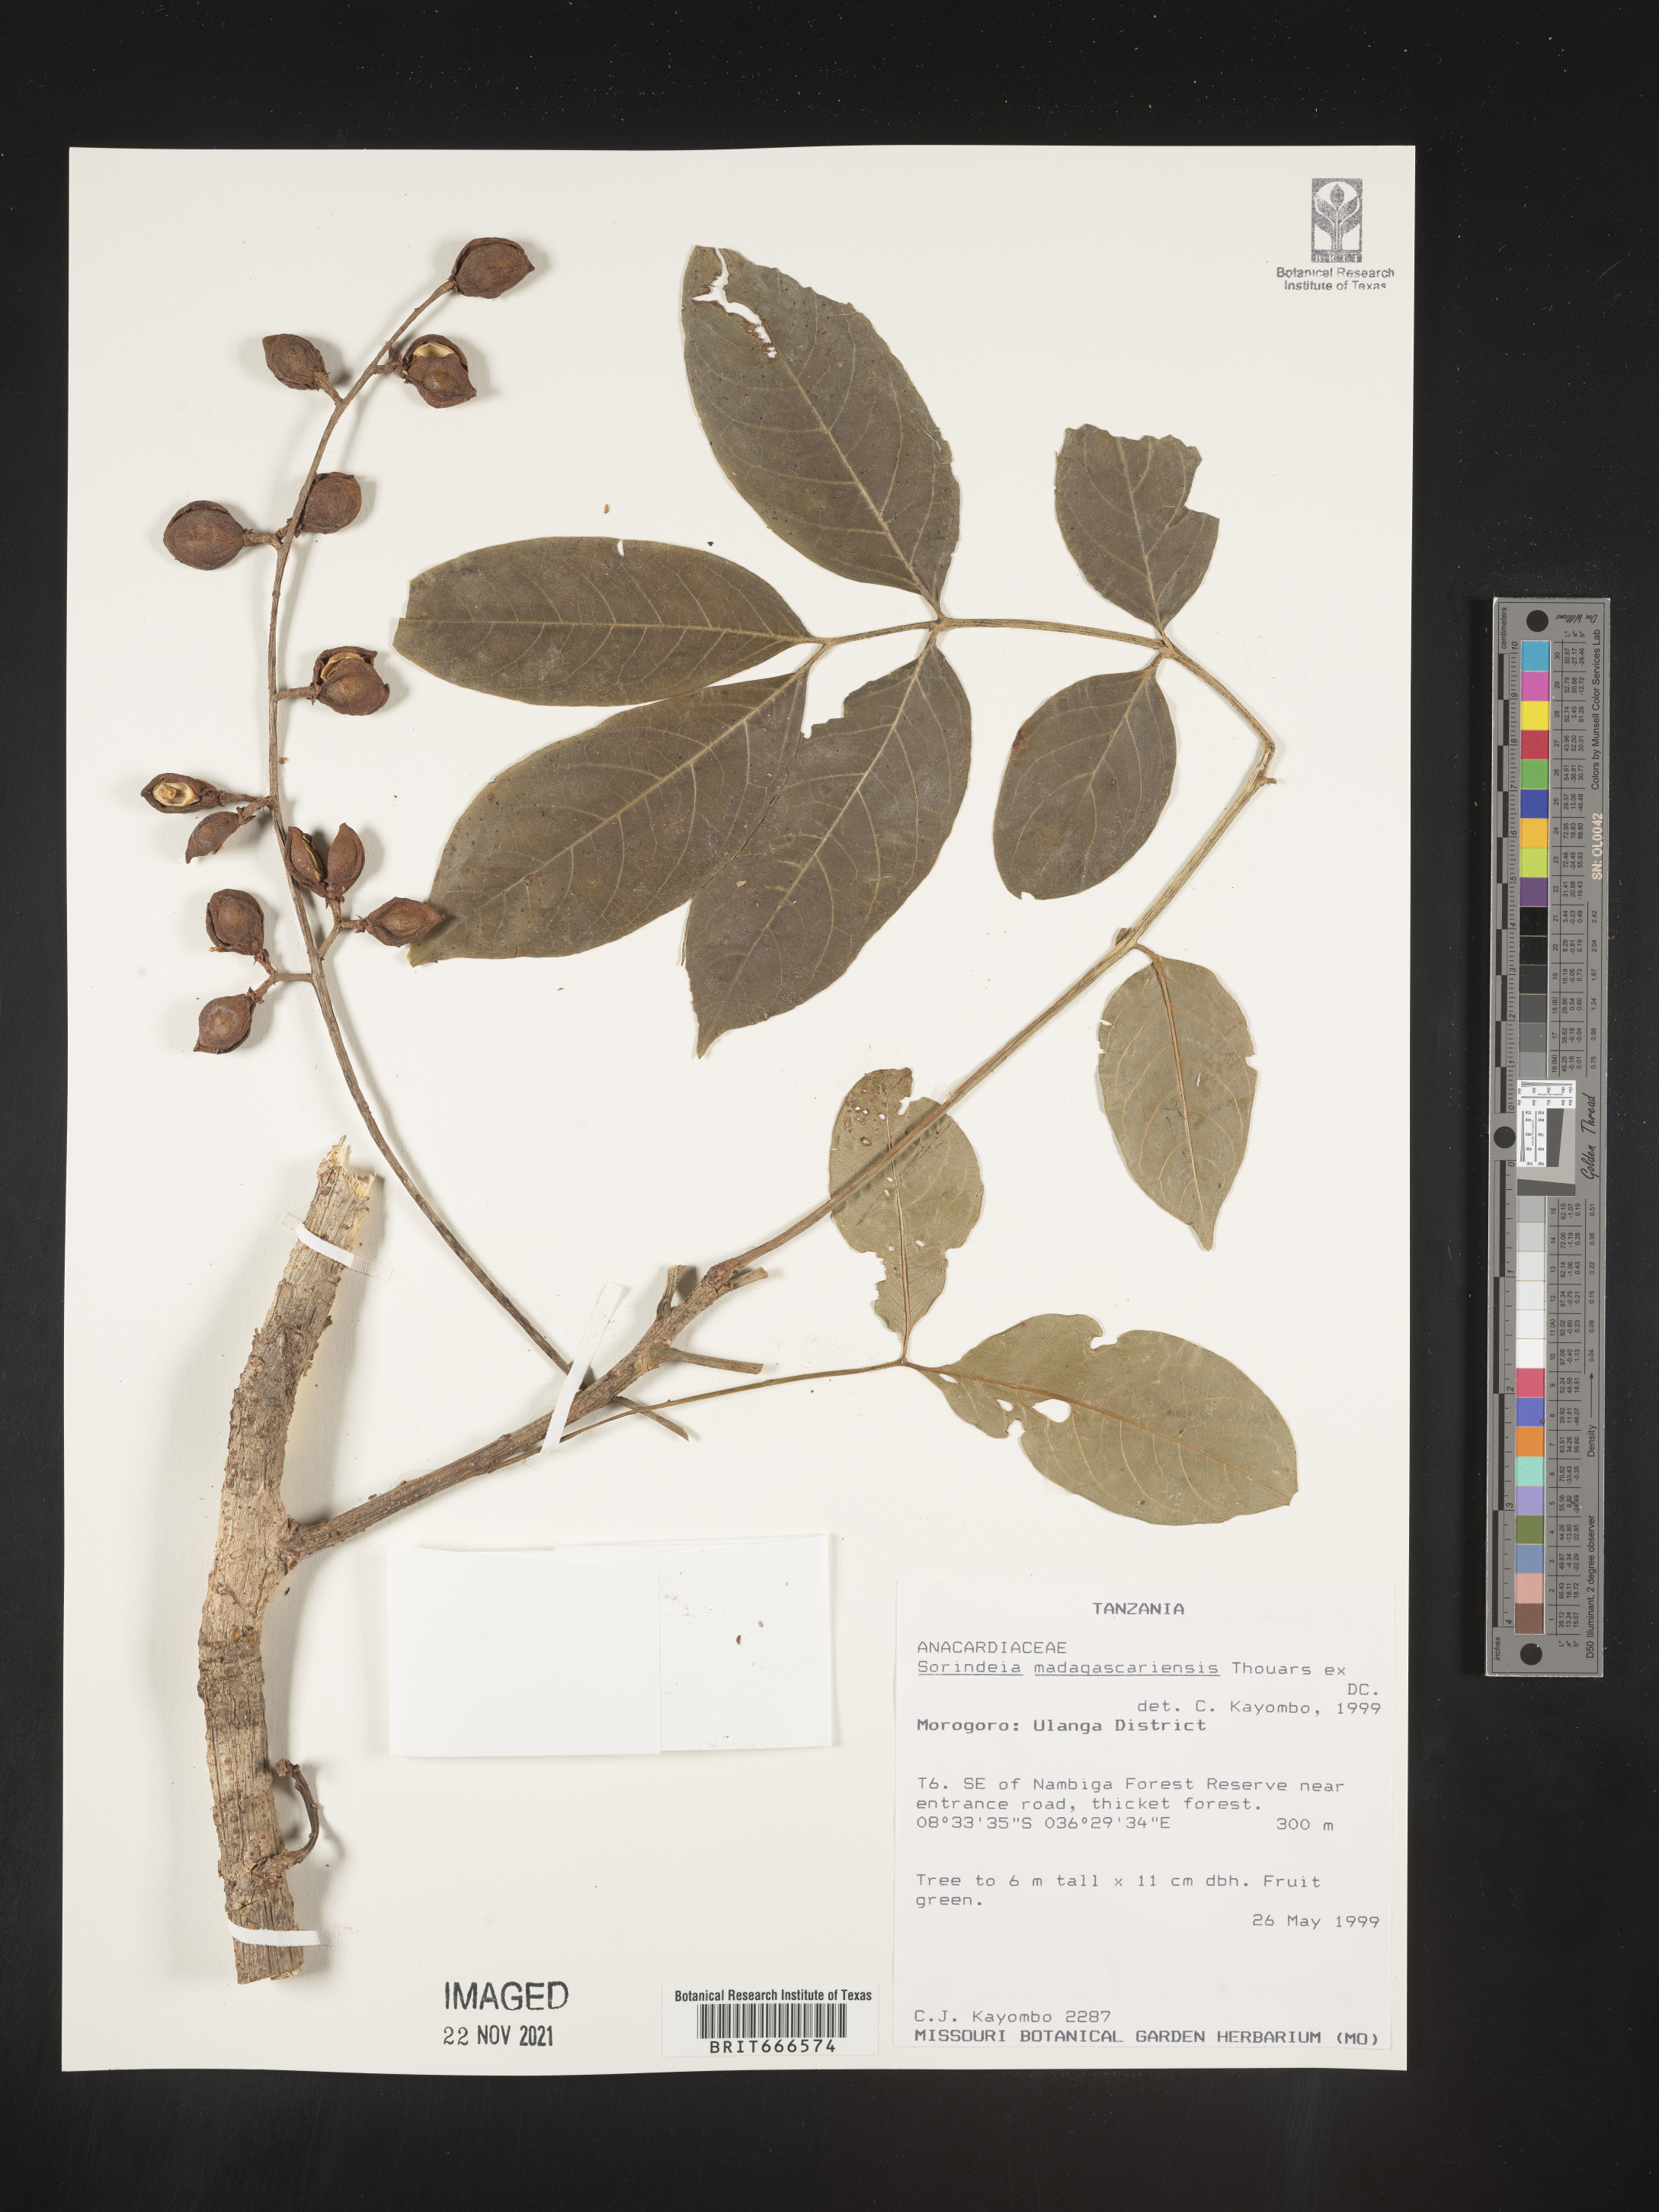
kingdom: Plantae
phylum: Tracheophyta
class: Magnoliopsida
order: Sapindales
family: Anacardiaceae
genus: Sorindeia
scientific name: Sorindeia
